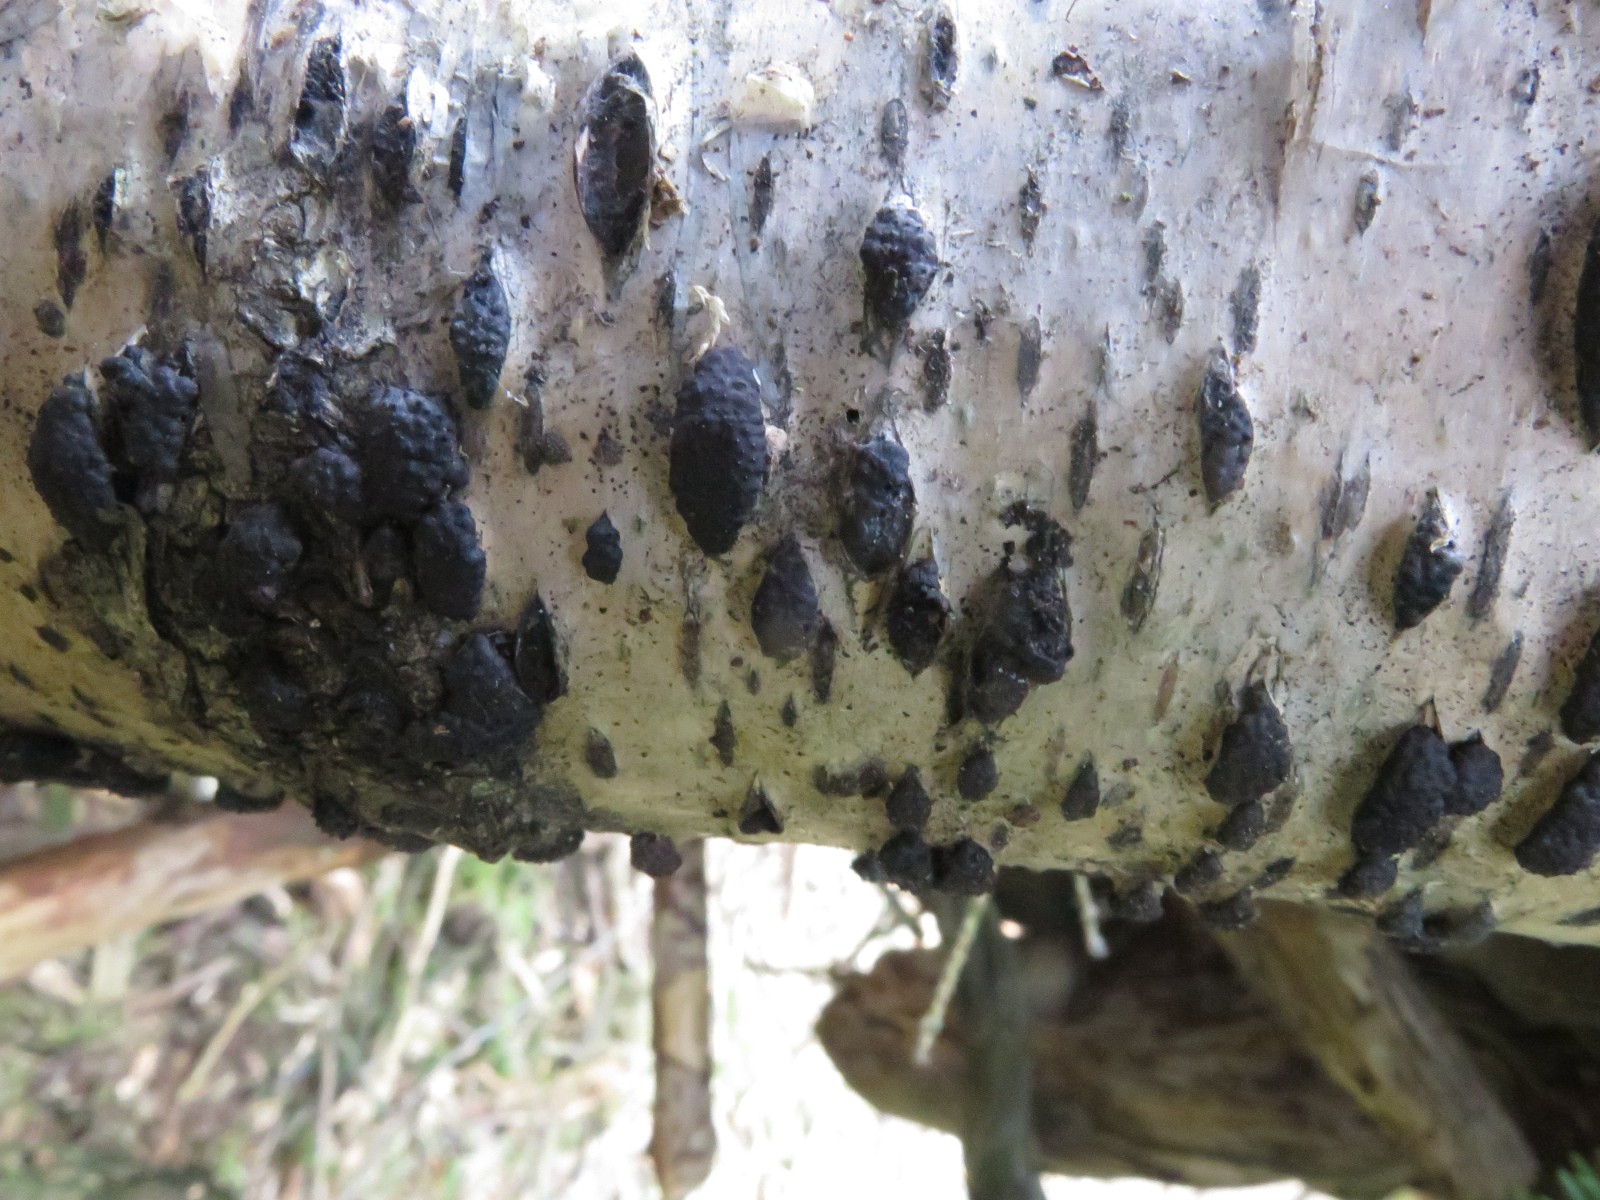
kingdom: Fungi
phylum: Ascomycota
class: Sordariomycetes
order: Xylariales
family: Hypoxylaceae
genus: Jackrogersella
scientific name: Jackrogersella multiformis
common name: foranderlig kulbær
